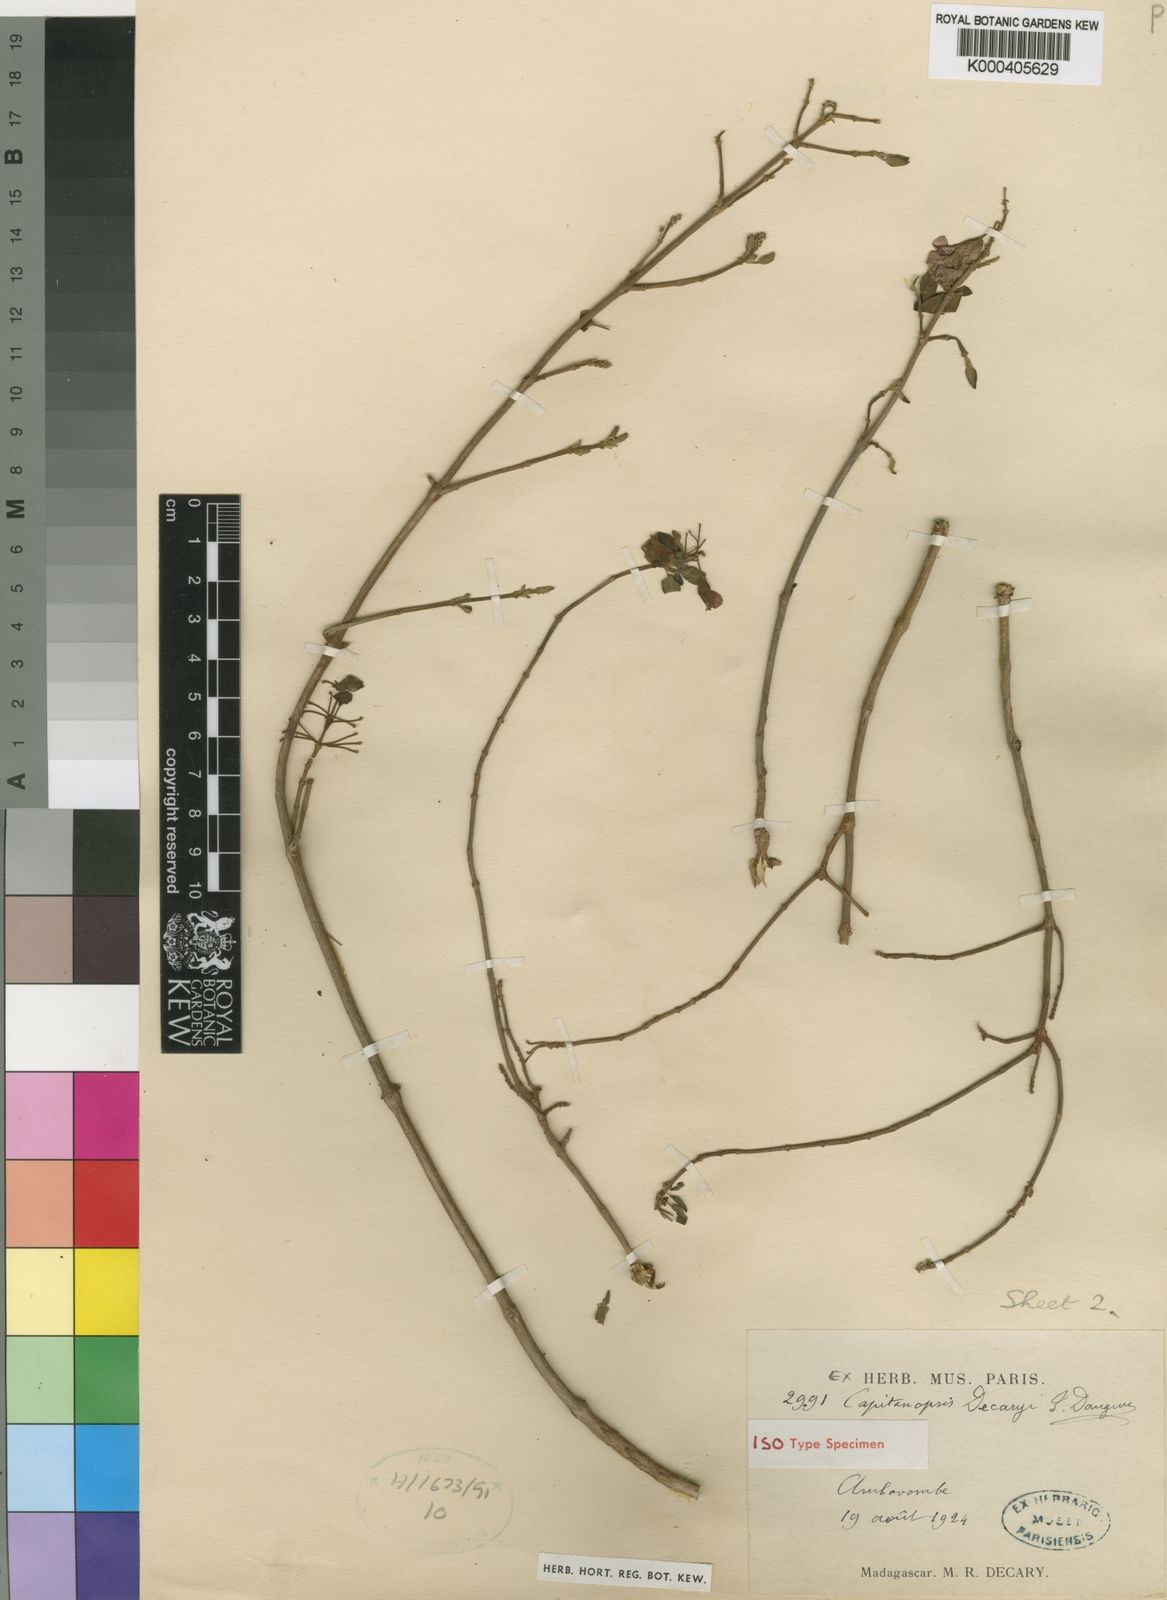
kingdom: Plantae
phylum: Tracheophyta
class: Magnoliopsida
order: Lamiales
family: Lamiaceae
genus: Capitanopsis
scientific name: Capitanopsis cloiselii
